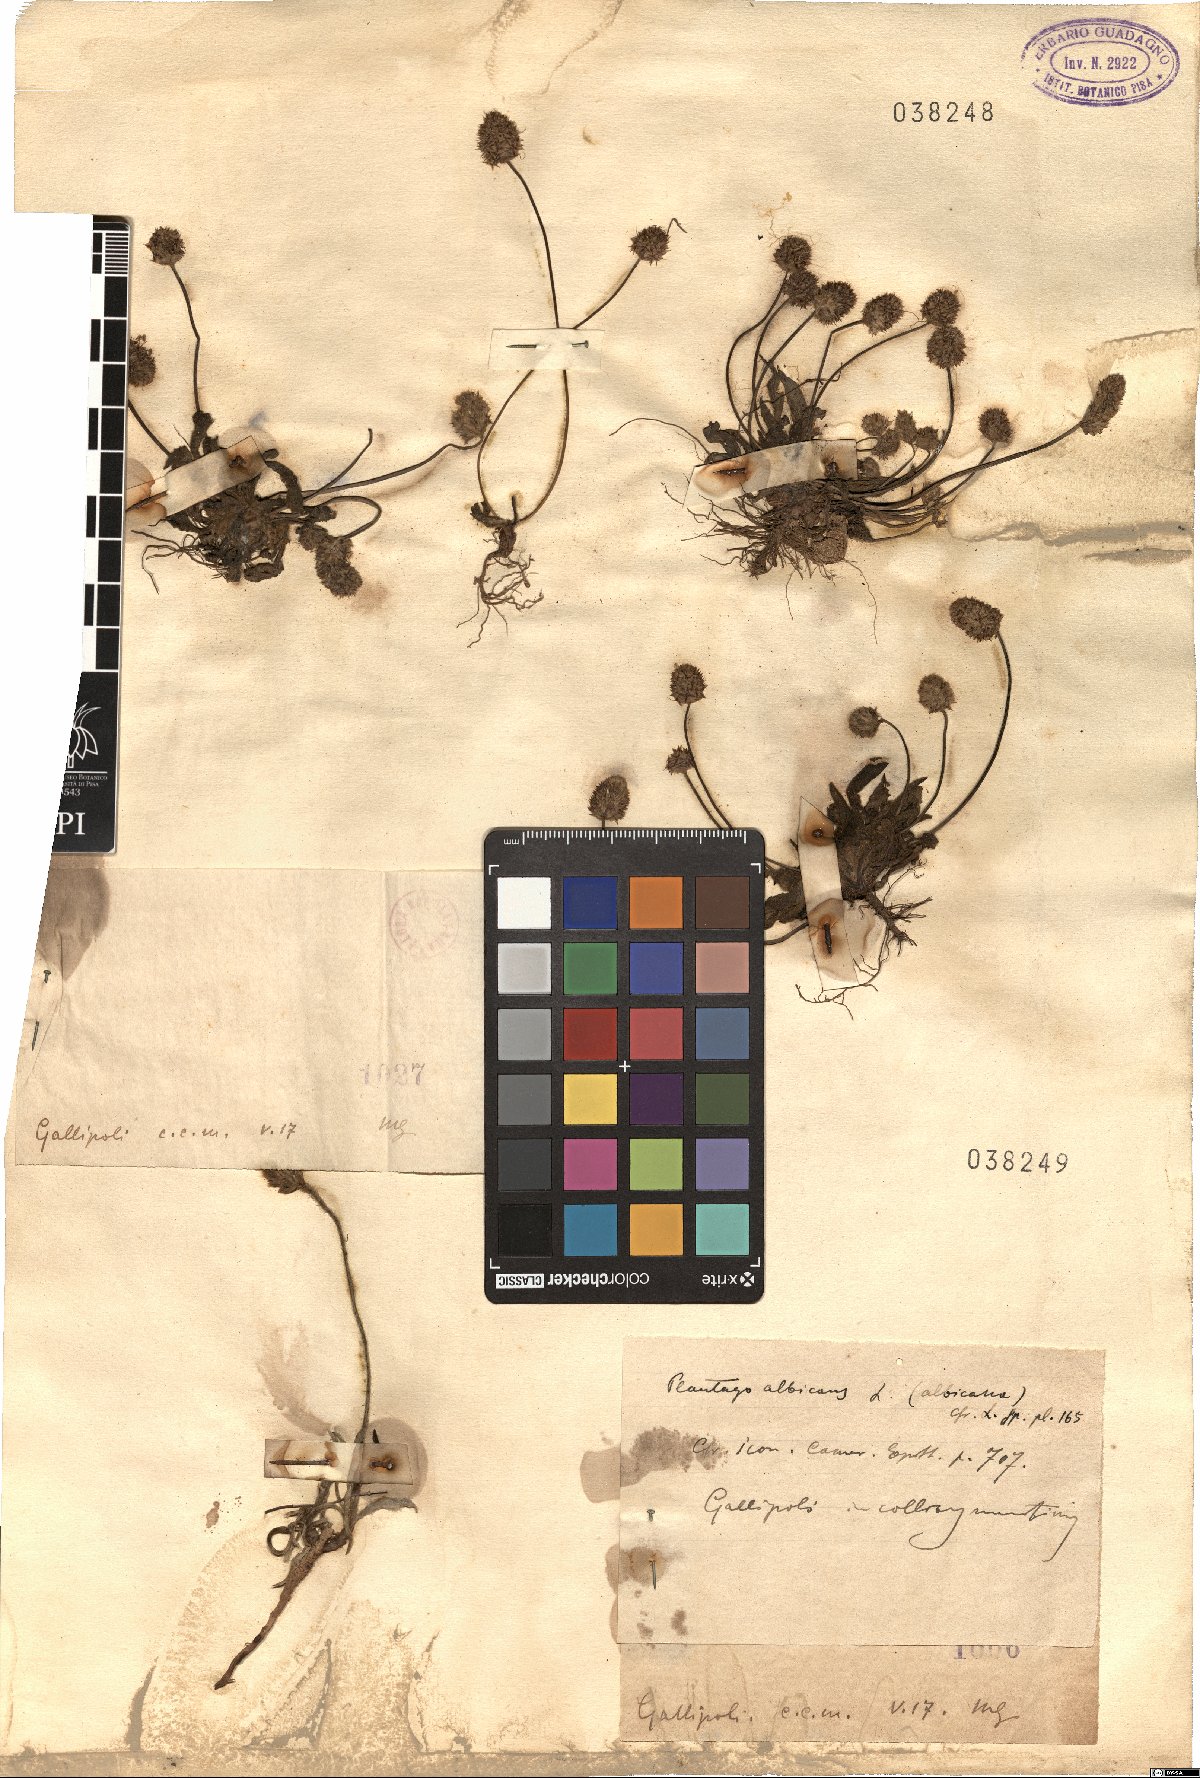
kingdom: Plantae
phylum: Tracheophyta
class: Magnoliopsida
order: Lamiales
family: Plantaginaceae
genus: Plantago
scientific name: Plantago
